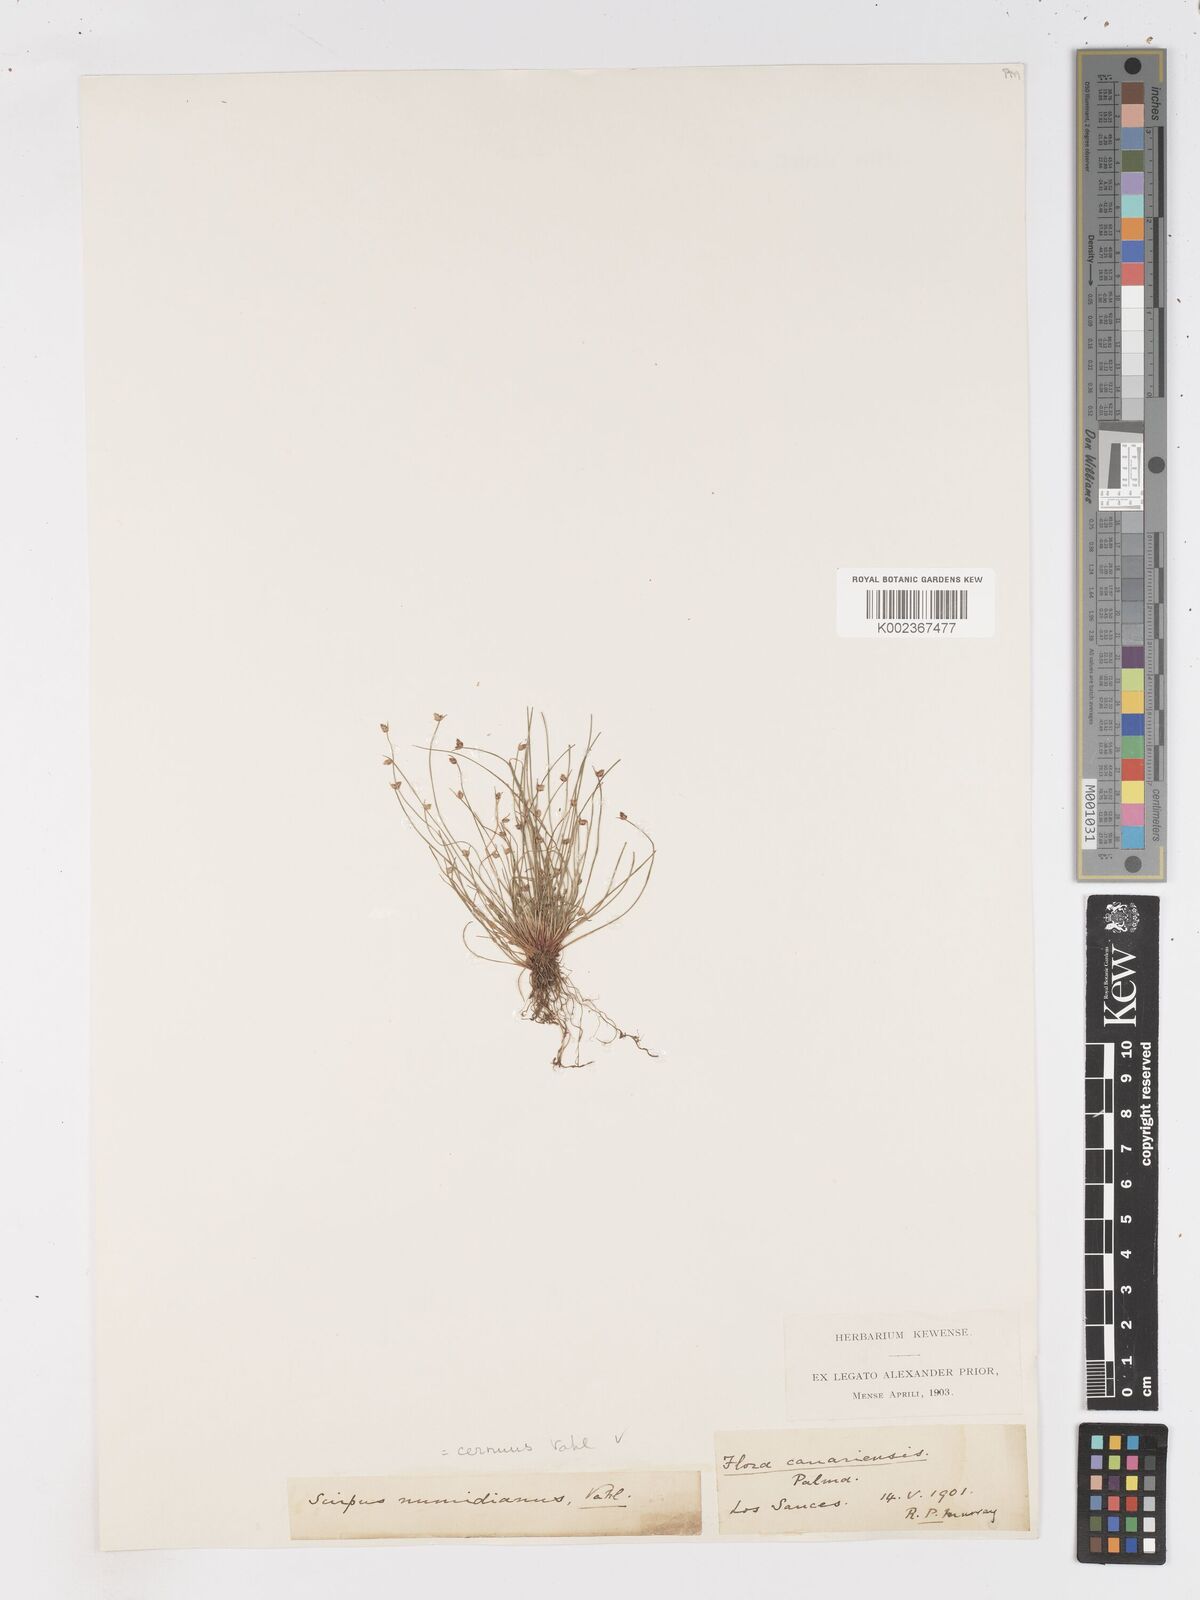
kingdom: Plantae
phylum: Tracheophyta
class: Liliopsida
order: Poales
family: Cyperaceae
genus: Isolepis
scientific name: Isolepis cernua
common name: Slender club-rush
